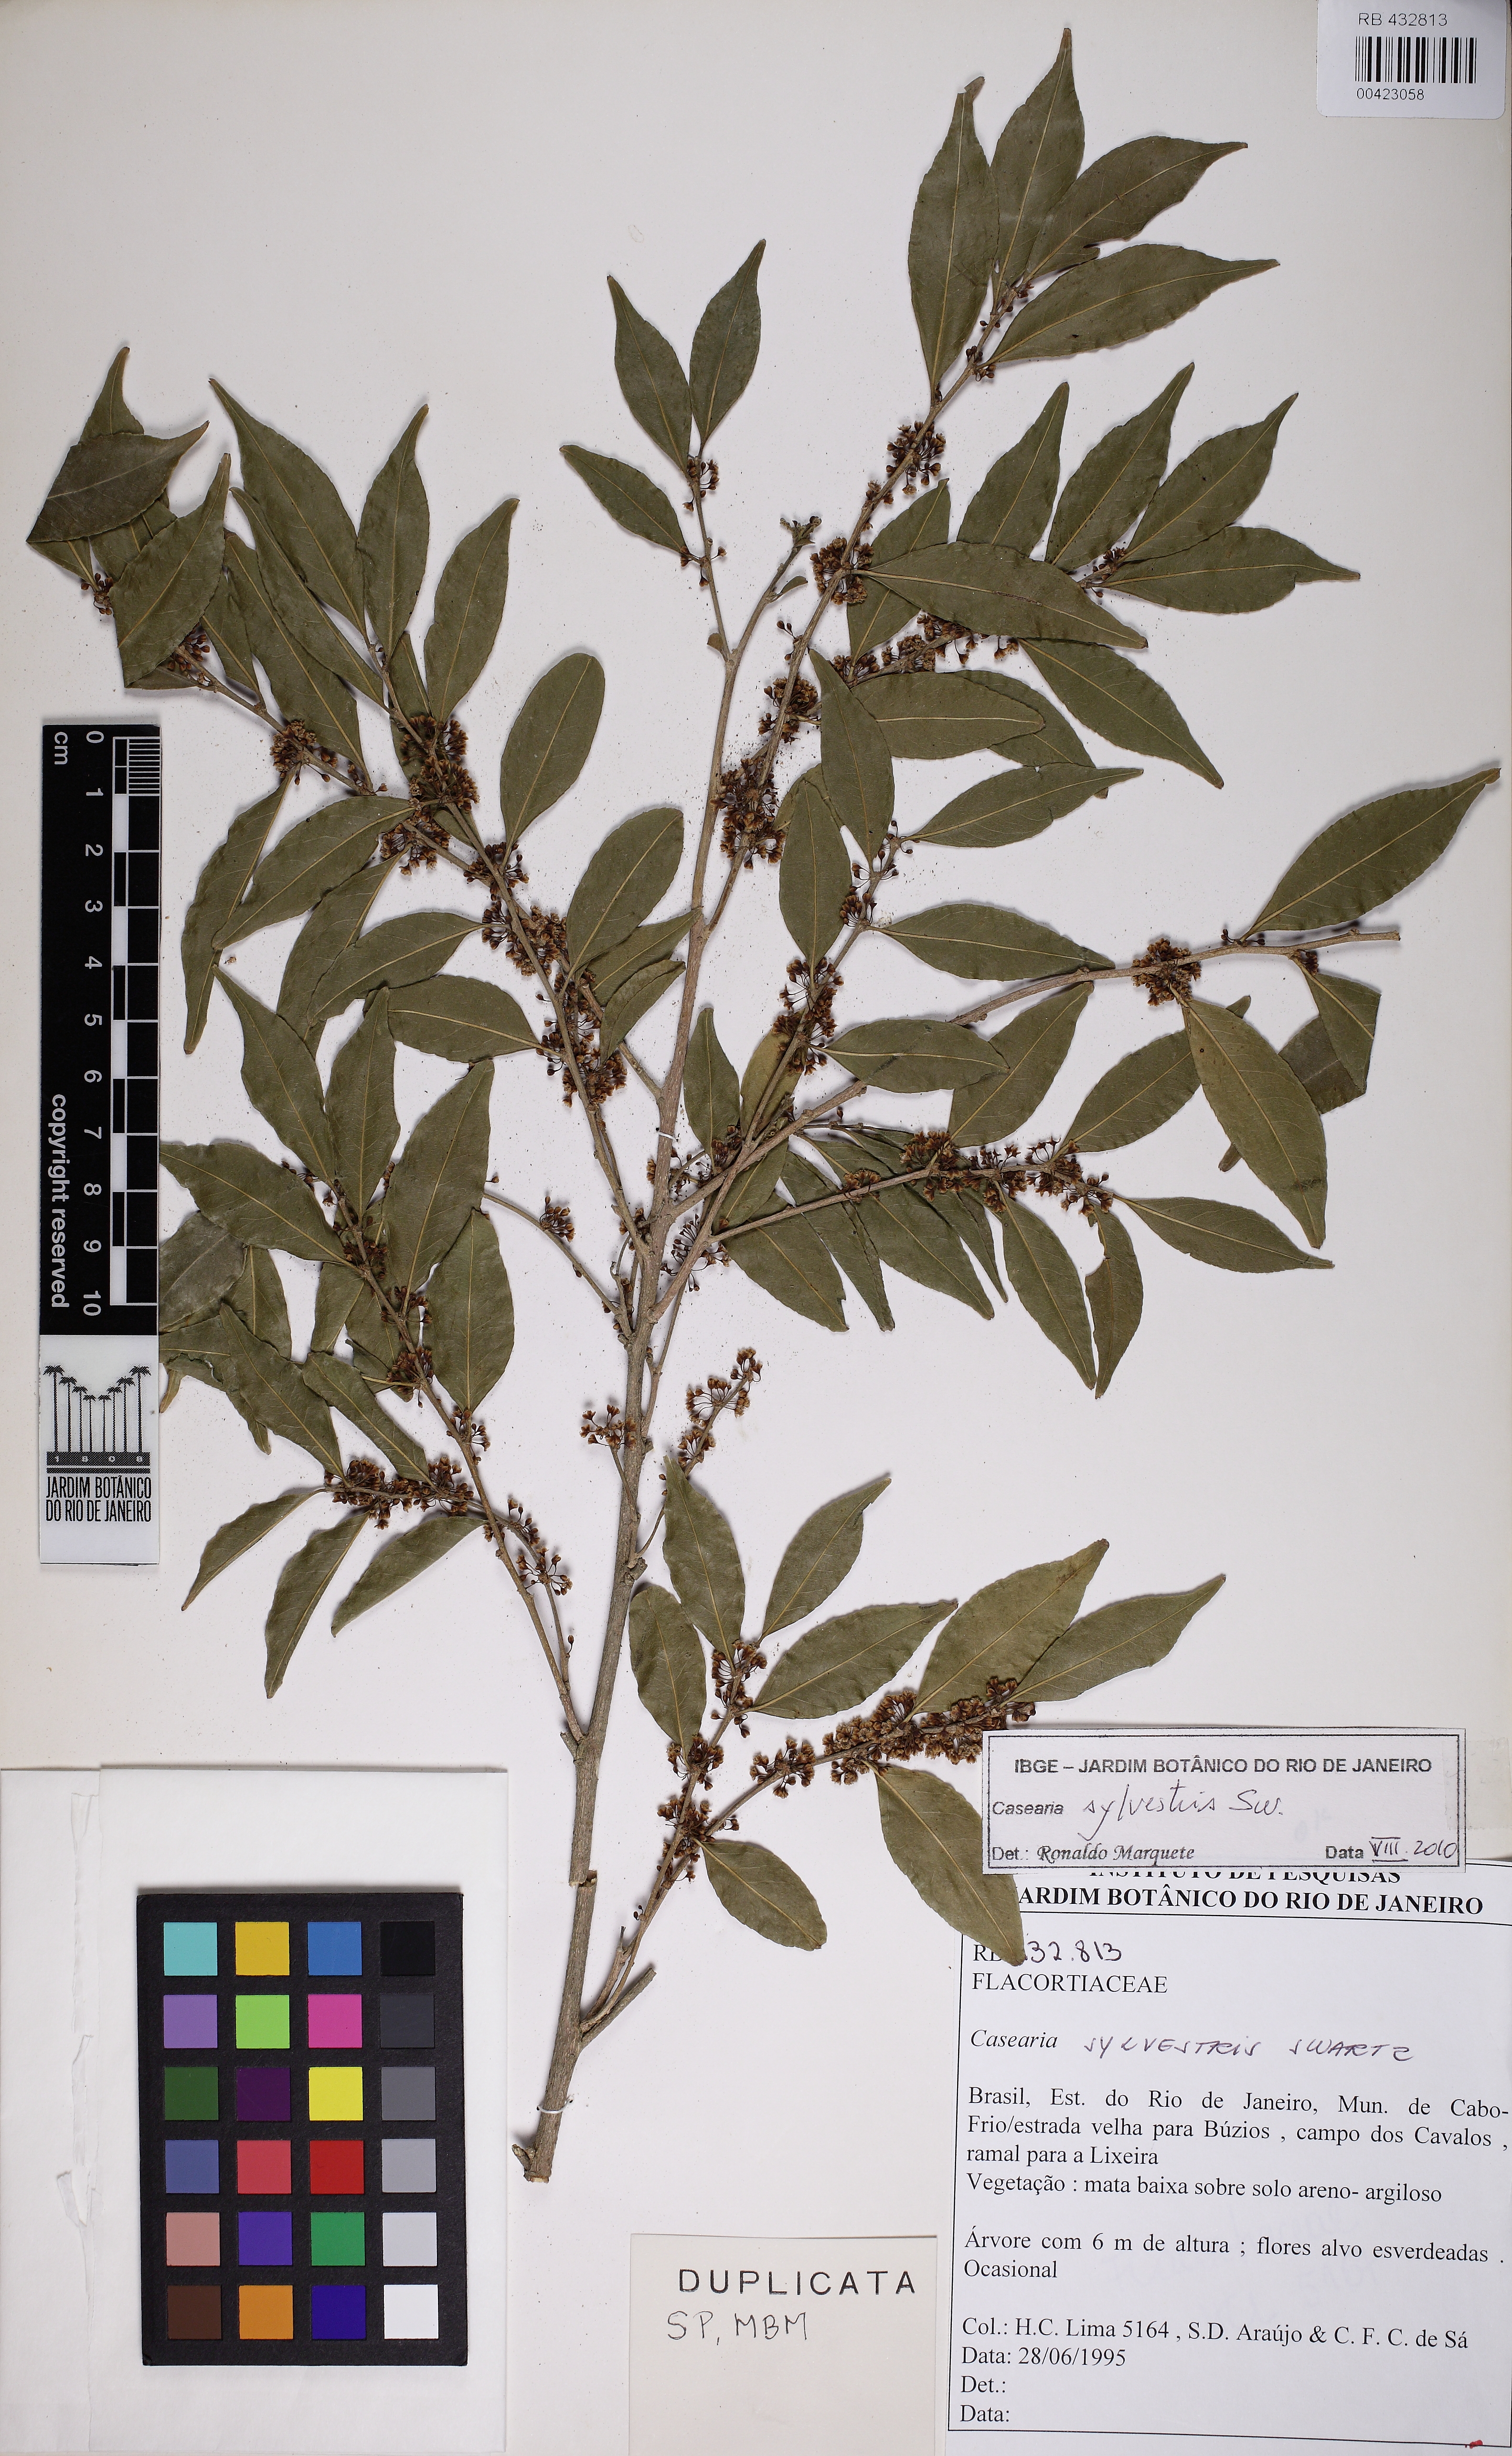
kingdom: Plantae
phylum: Tracheophyta
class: Magnoliopsida
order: Malpighiales
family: Salicaceae
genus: Casearia
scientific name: Casearia sylvestris
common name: Wild sage
